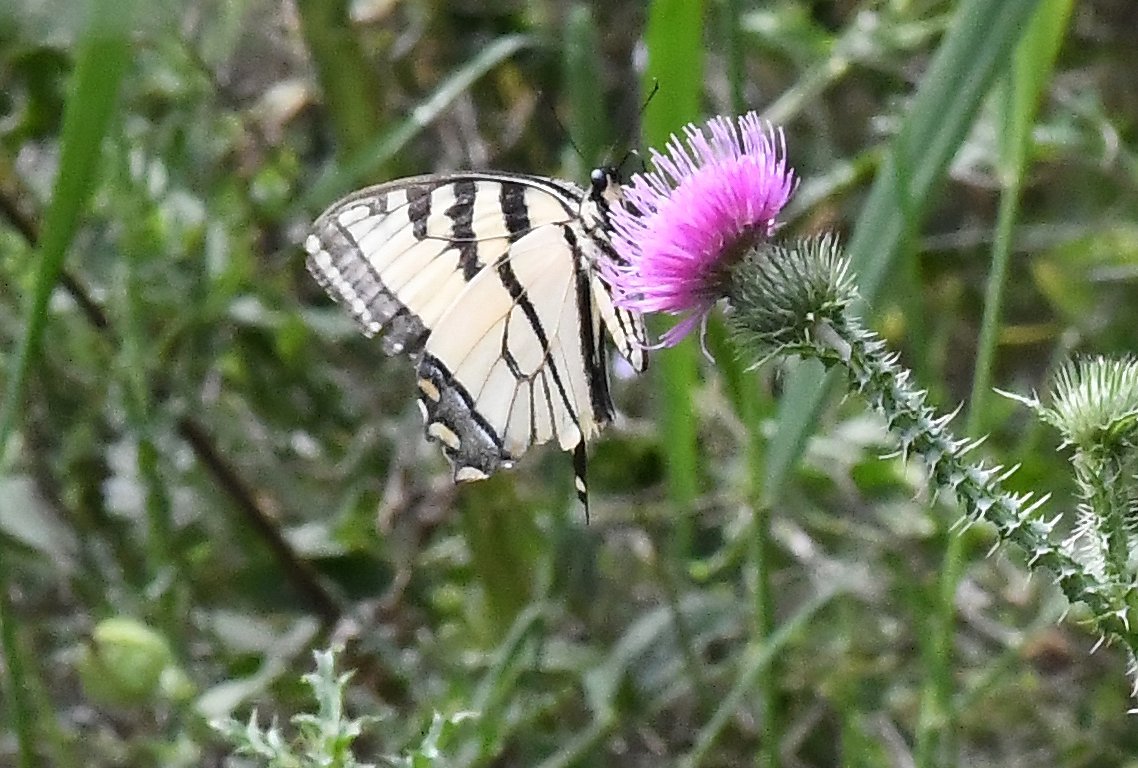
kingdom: Animalia
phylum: Arthropoda
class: Insecta
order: Lepidoptera
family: Papilionidae
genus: Pterourus
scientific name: Pterourus
